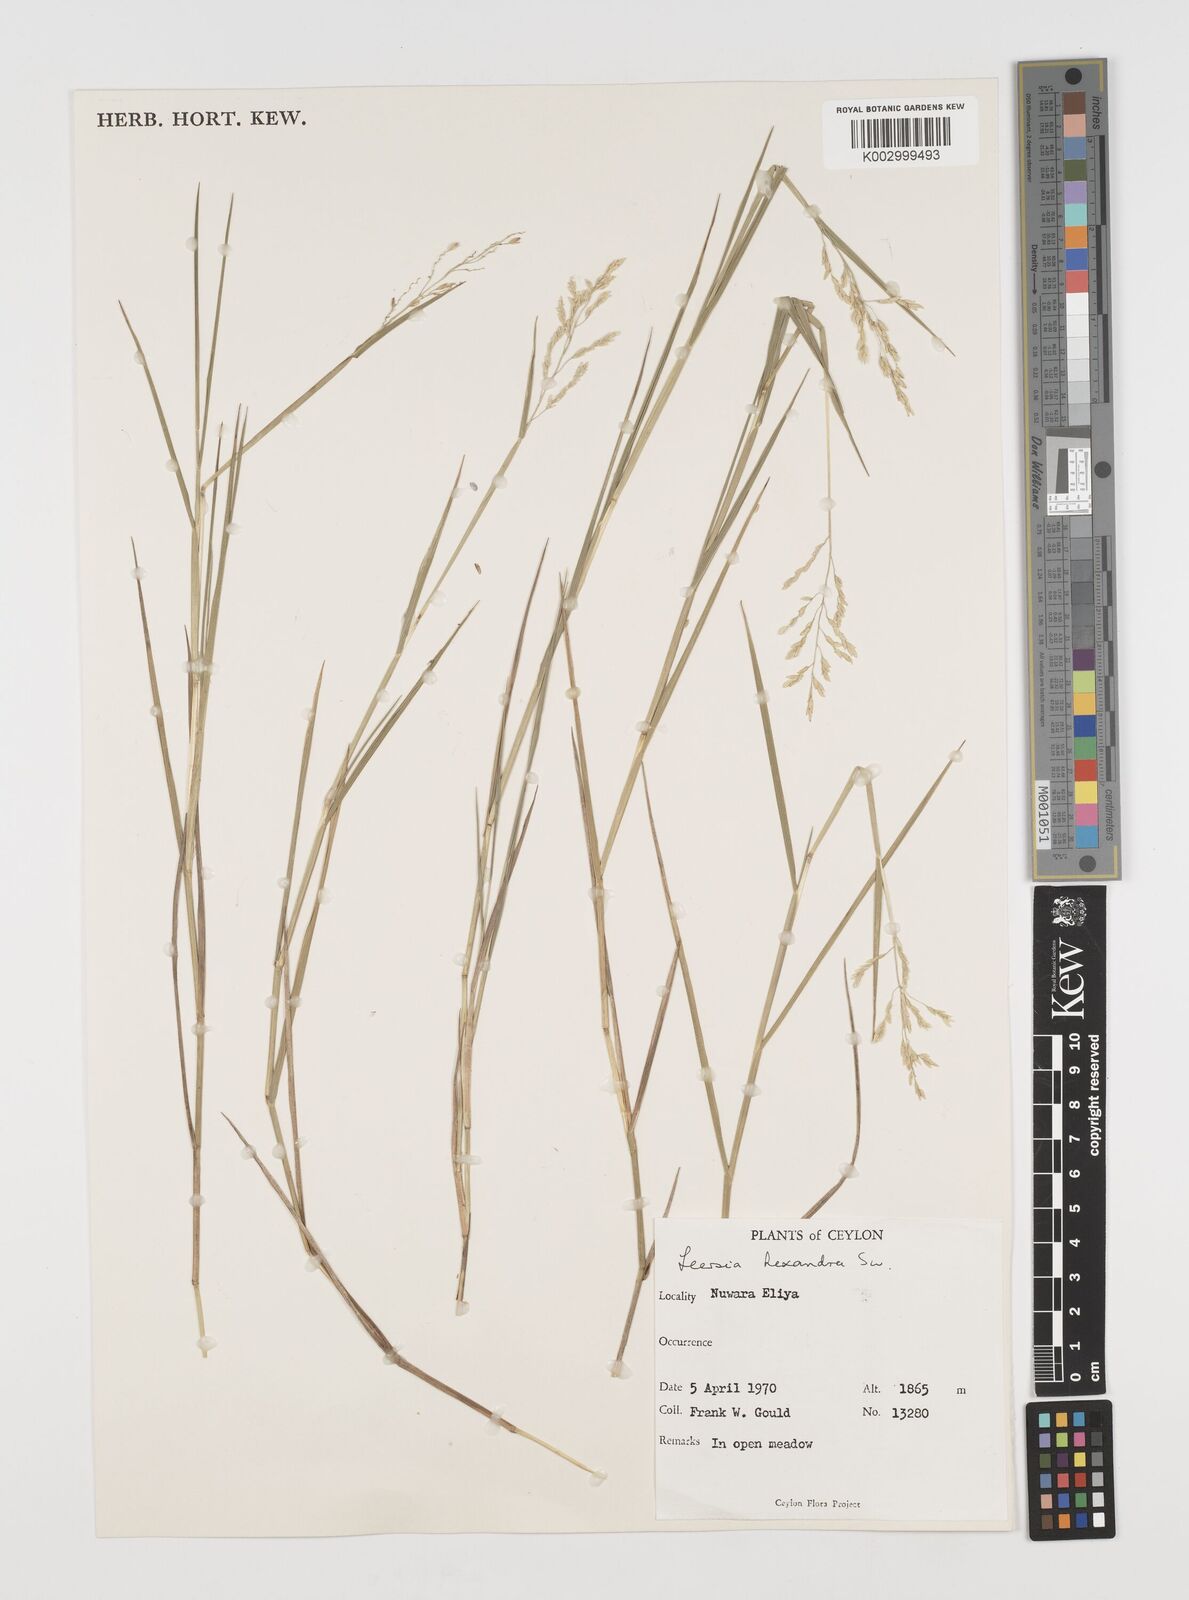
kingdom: Plantae
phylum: Tracheophyta
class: Liliopsida
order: Poales
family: Poaceae
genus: Leersia
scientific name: Leersia hexandra
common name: Southern cut grass
